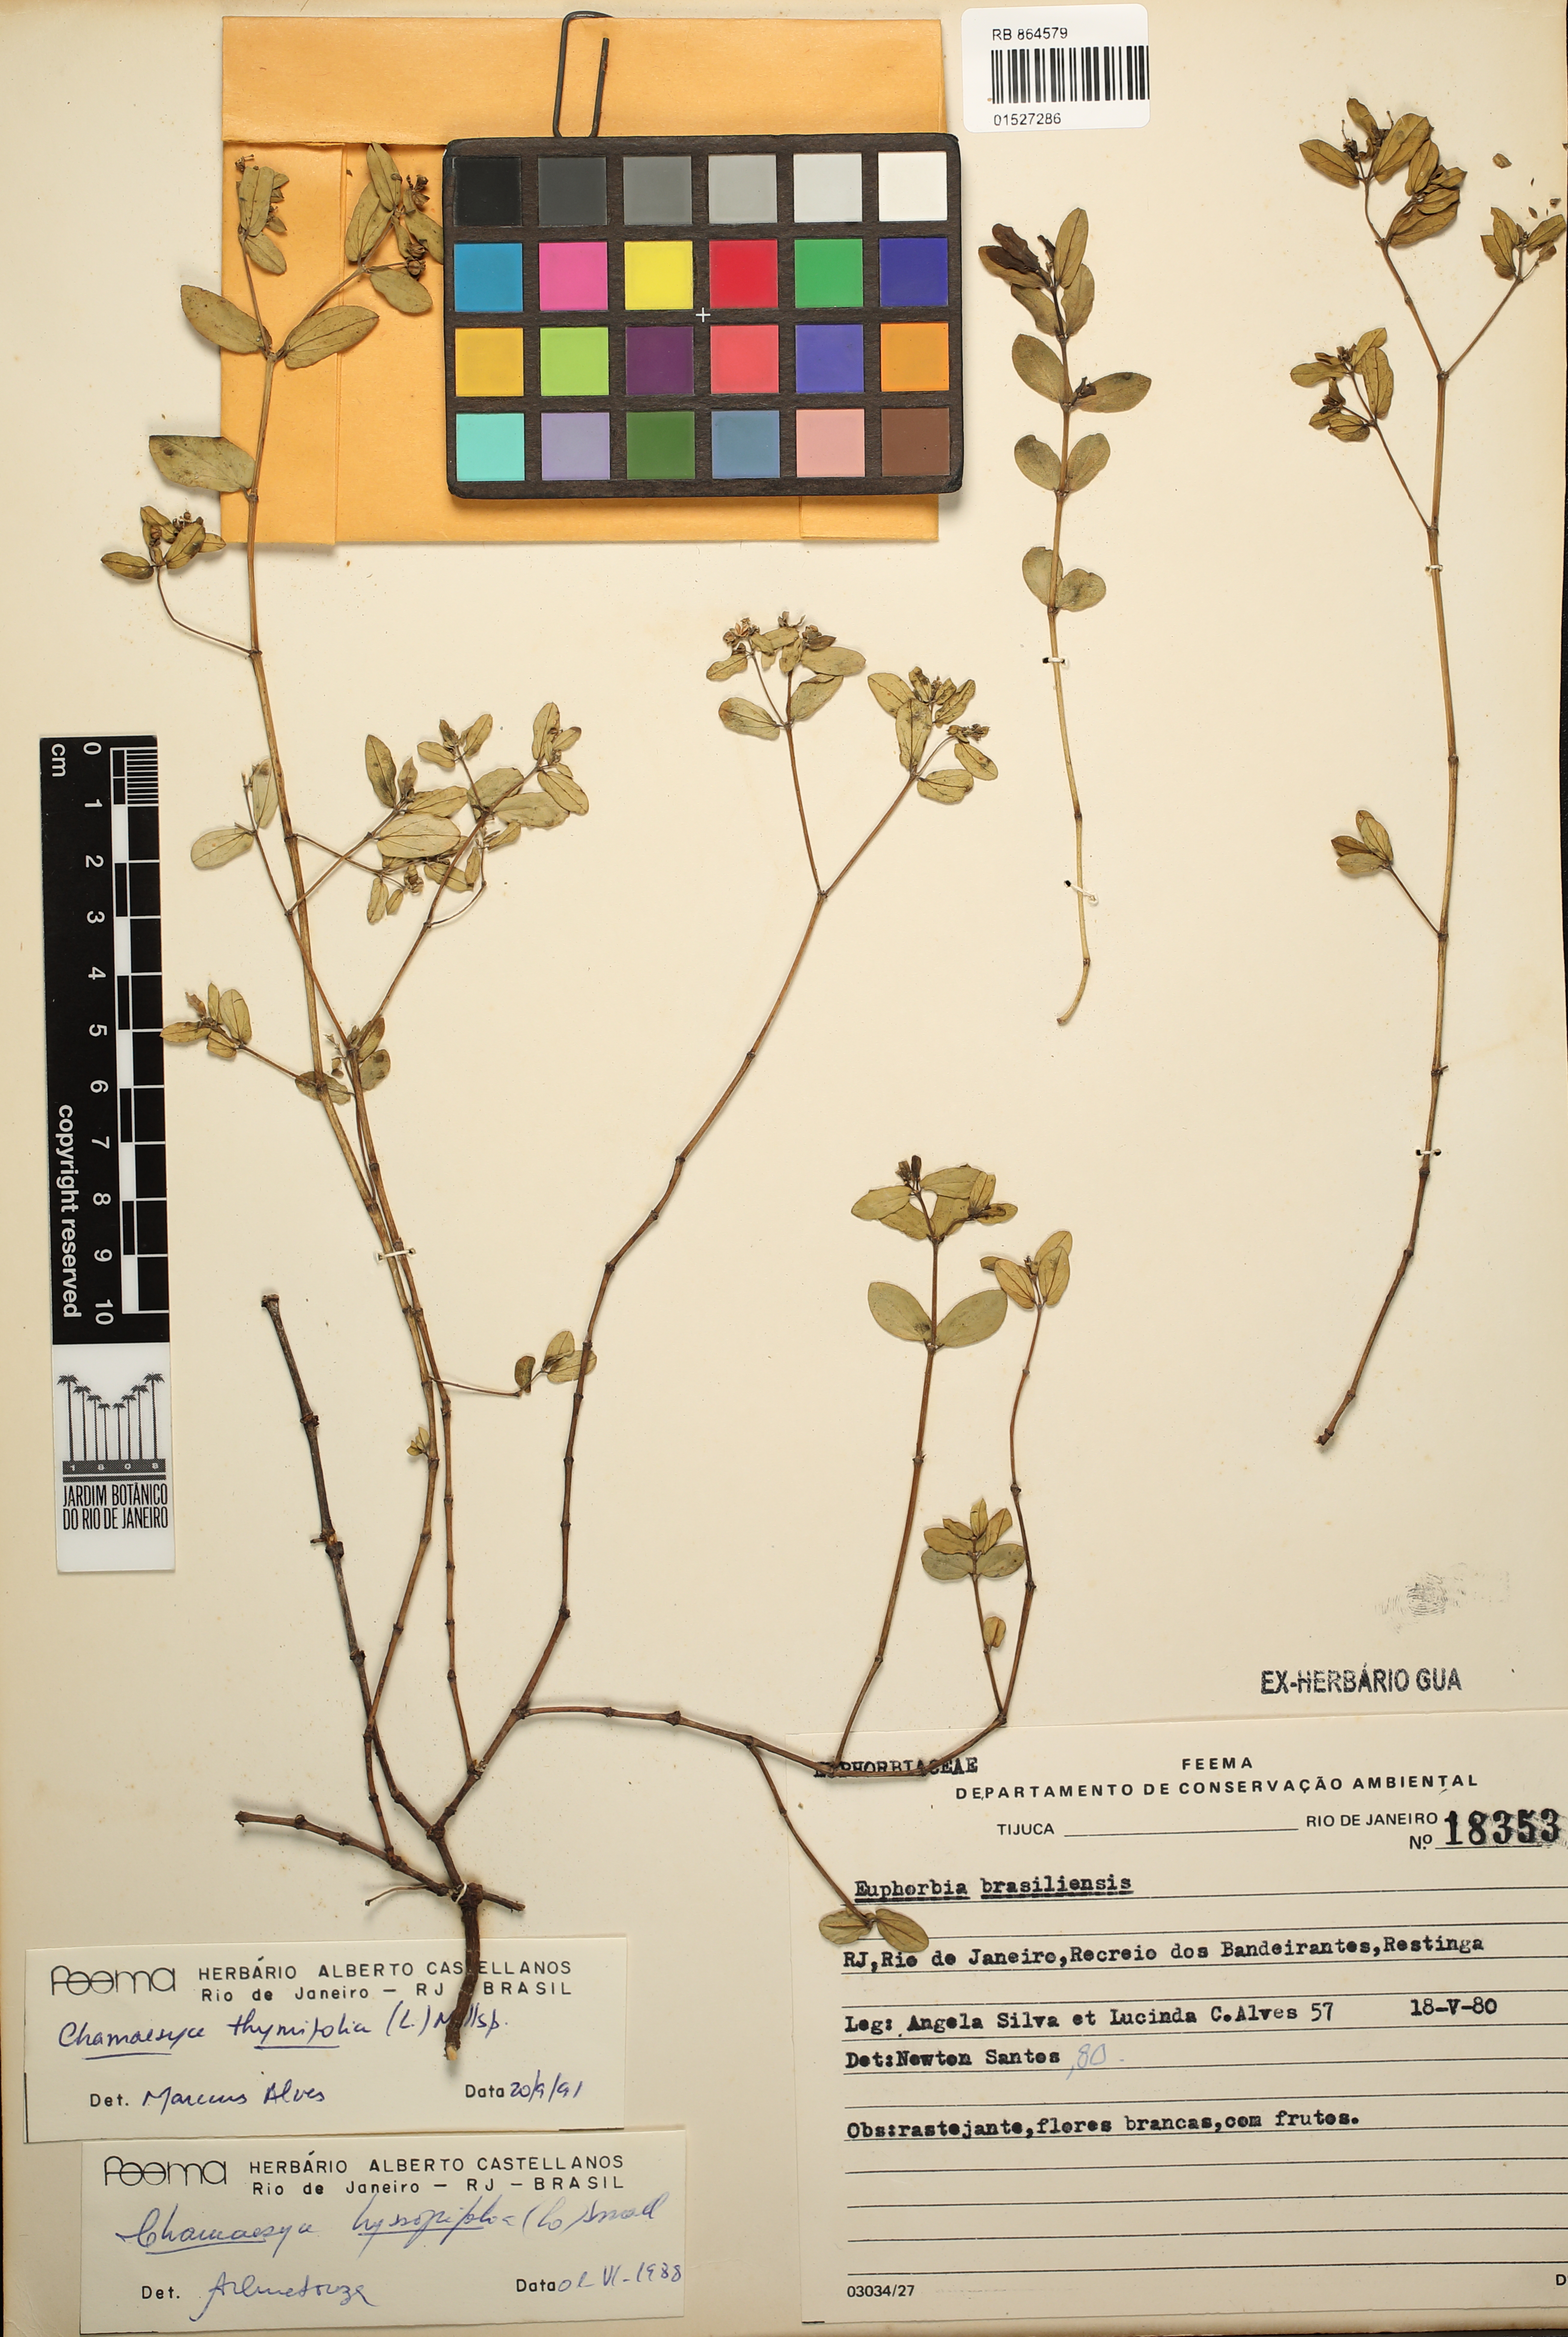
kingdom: Plantae
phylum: Tracheophyta
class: Magnoliopsida
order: Malpighiales
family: Euphorbiaceae
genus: Euphorbia
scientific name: Euphorbia thymifolia
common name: Gulf sandmat
